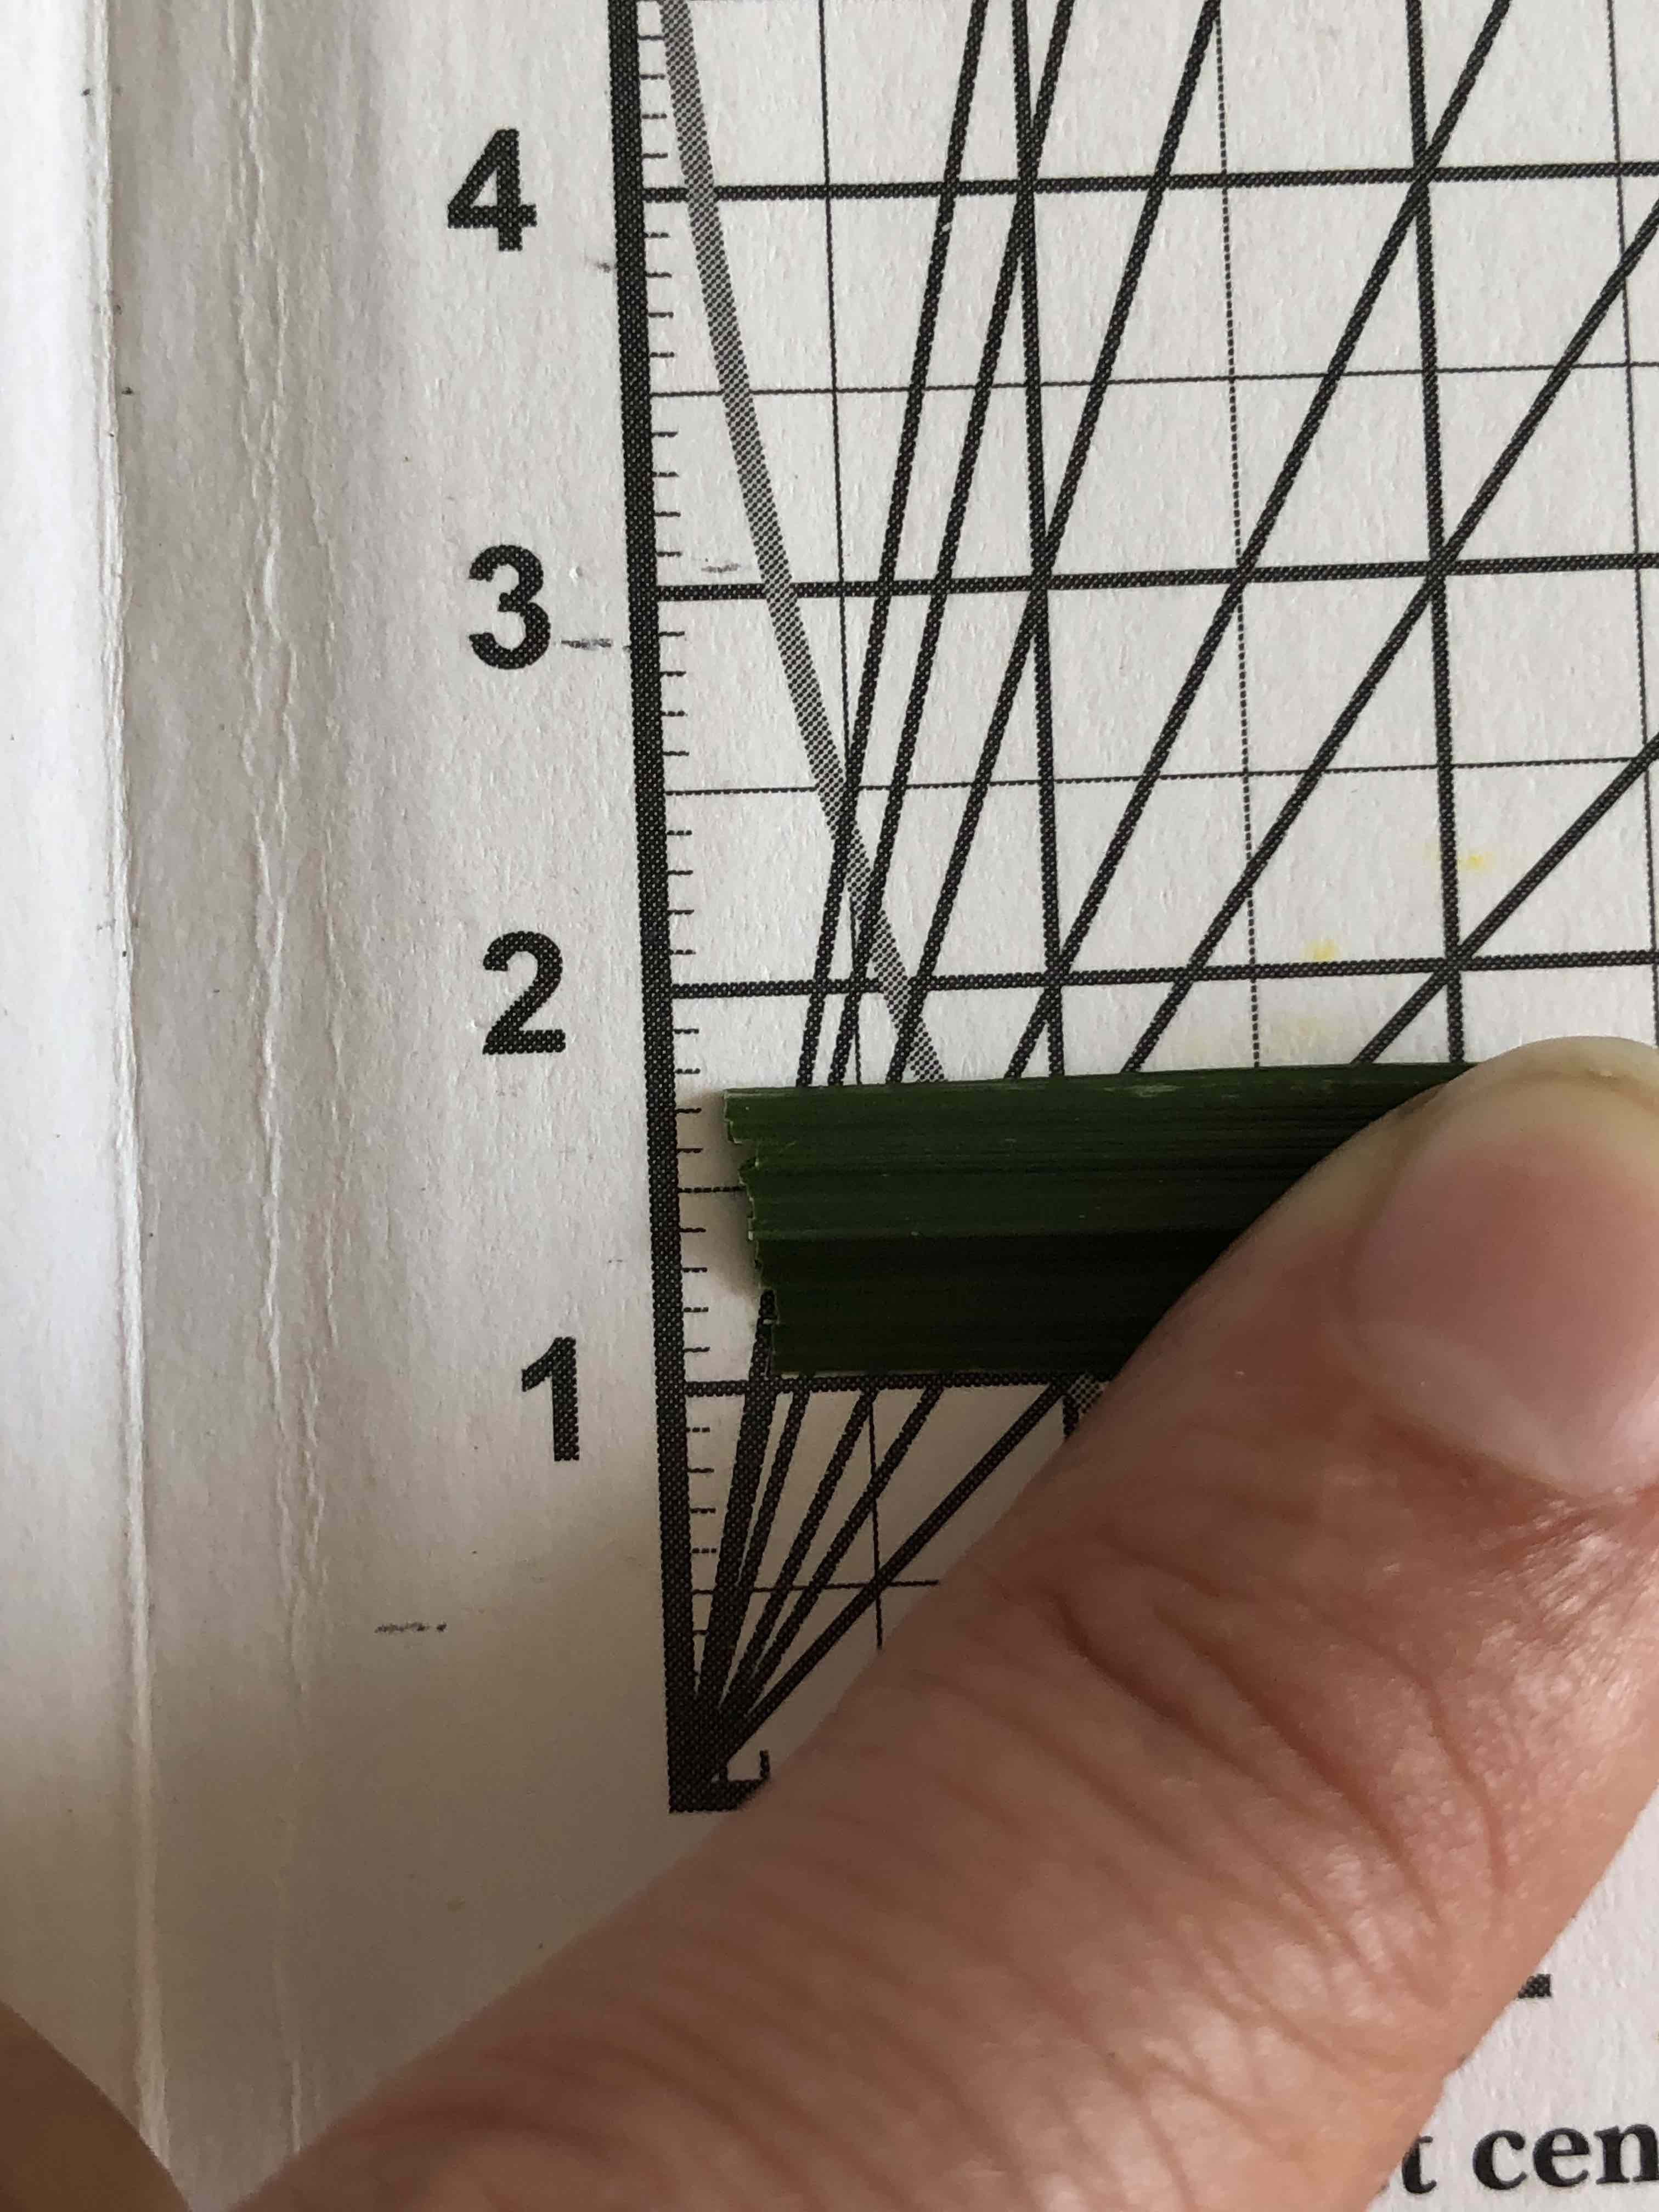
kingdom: Plantae
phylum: Tracheophyta
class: Liliopsida
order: Poales
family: Poaceae
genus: Lolium
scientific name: Lolium arundinaceum
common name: Strand-svingel
